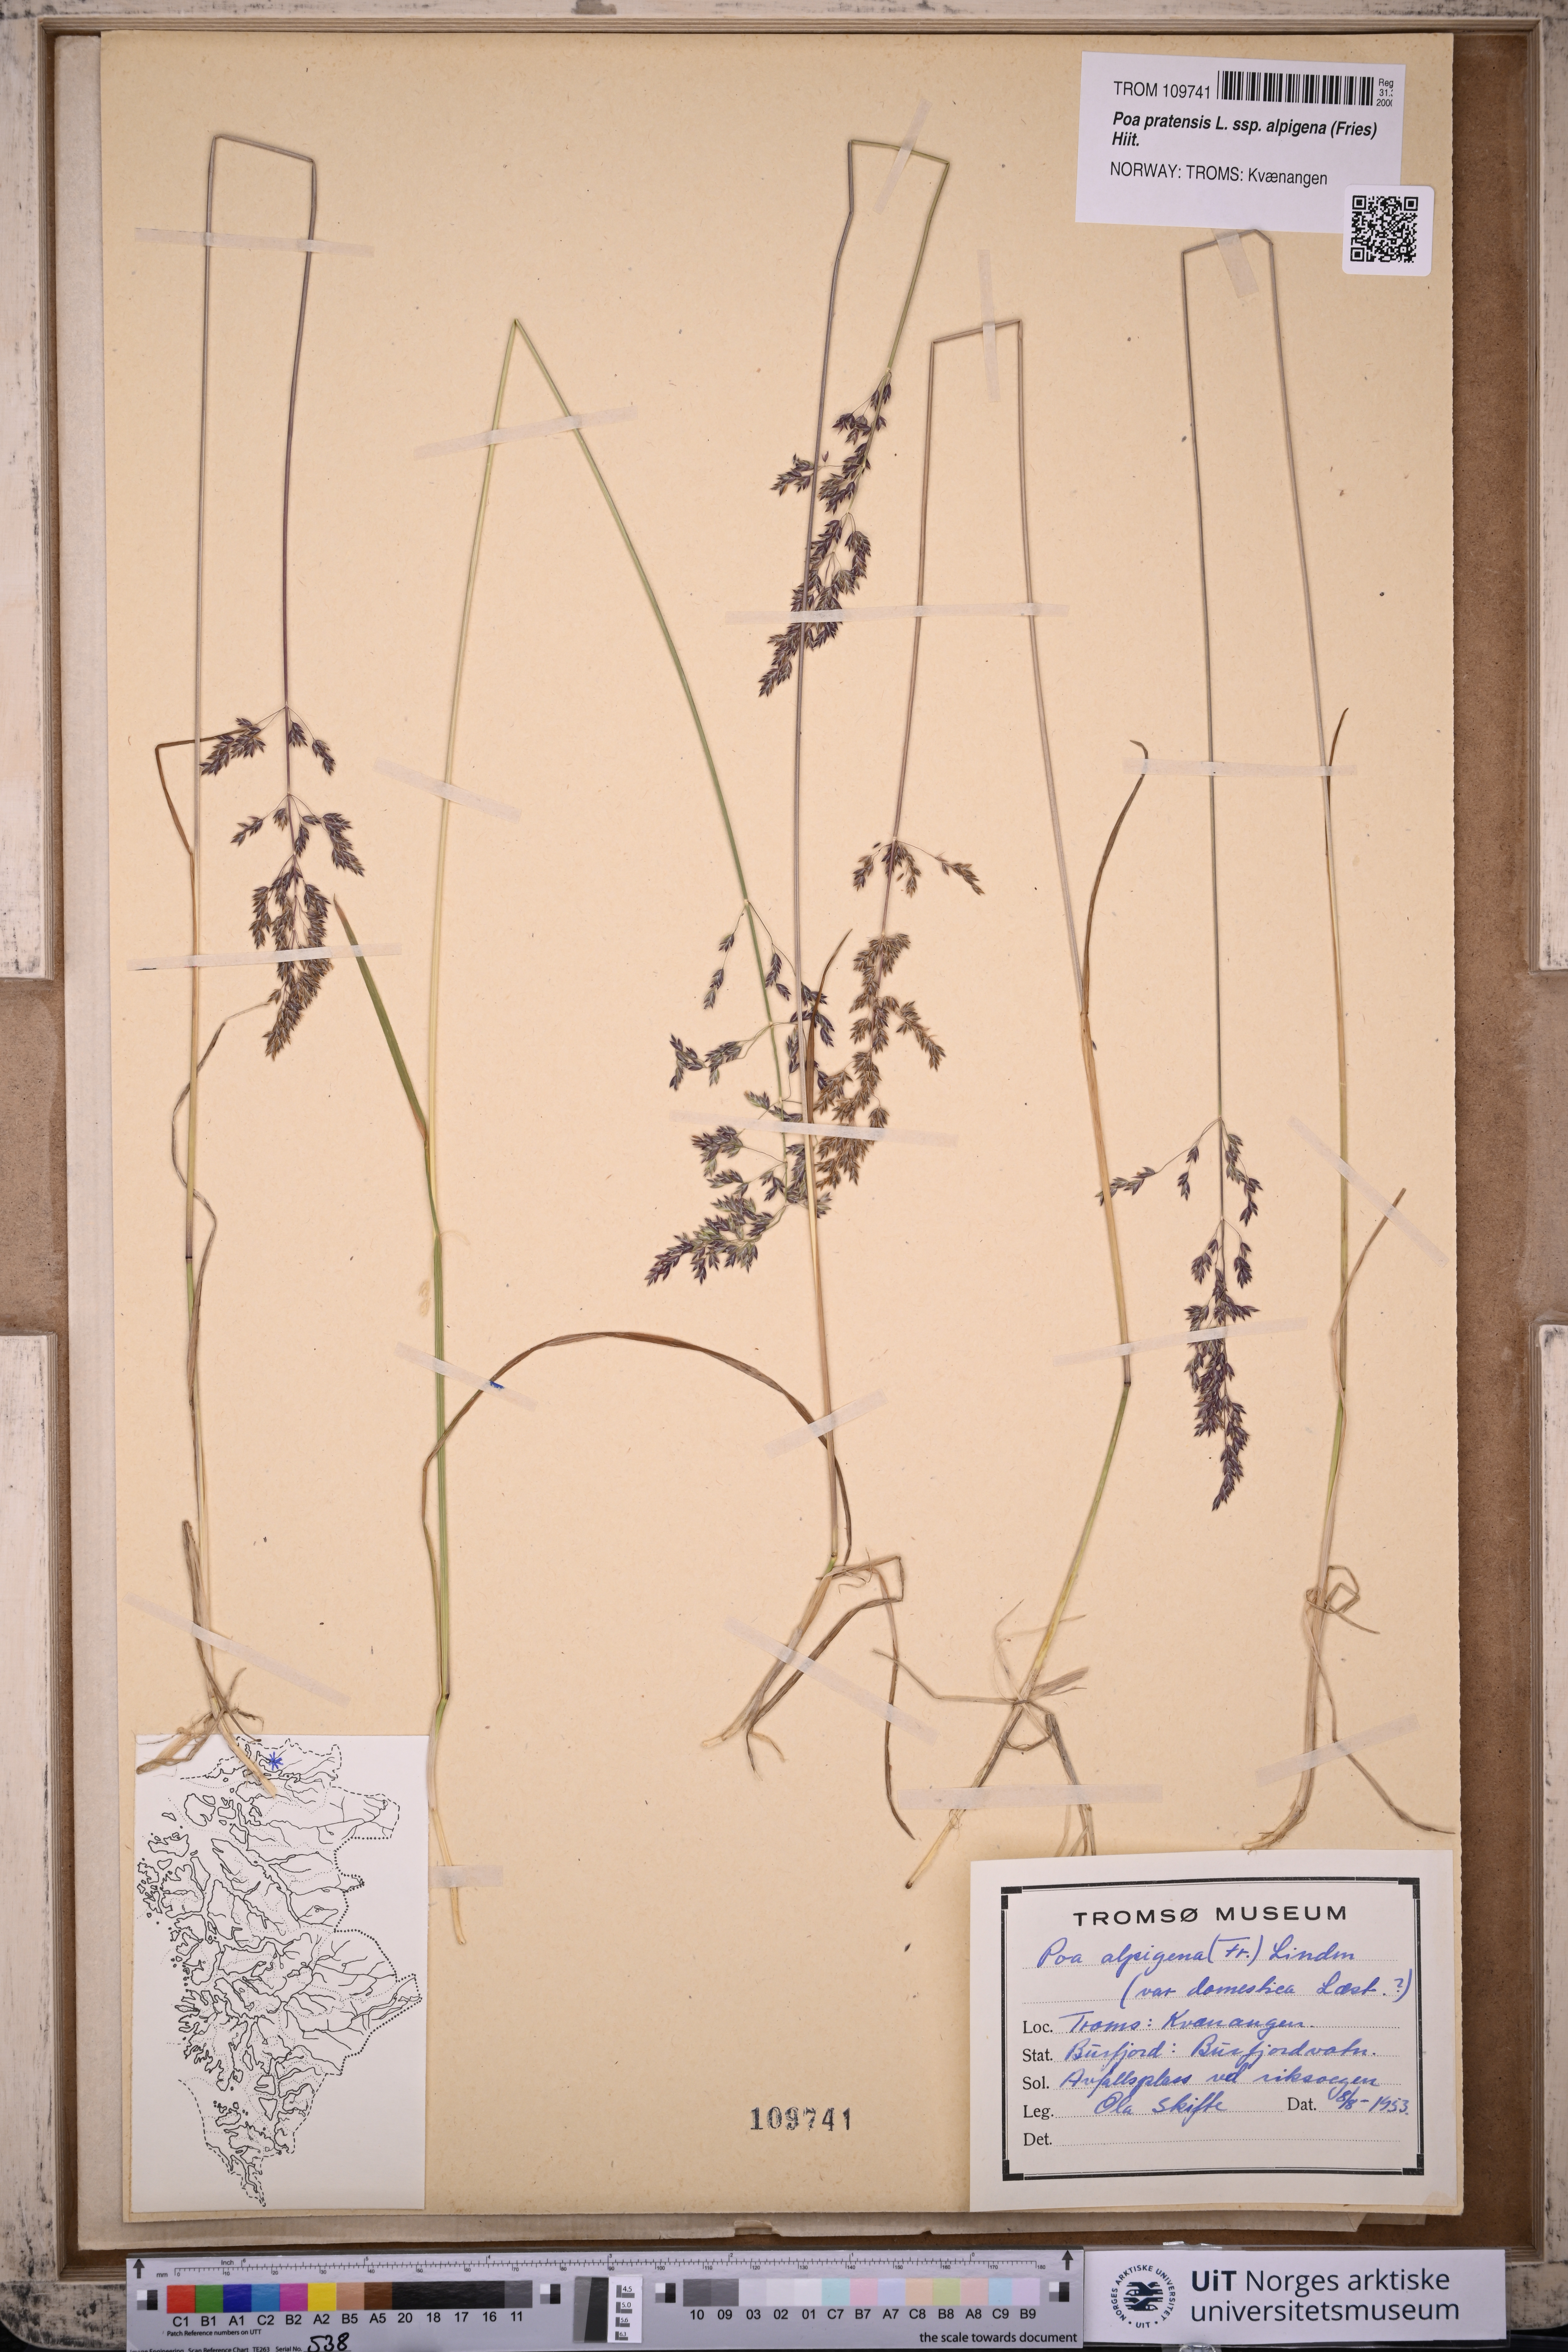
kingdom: Plantae
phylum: Tracheophyta
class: Liliopsida
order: Poales
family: Poaceae
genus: Poa
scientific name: Poa alpigena
